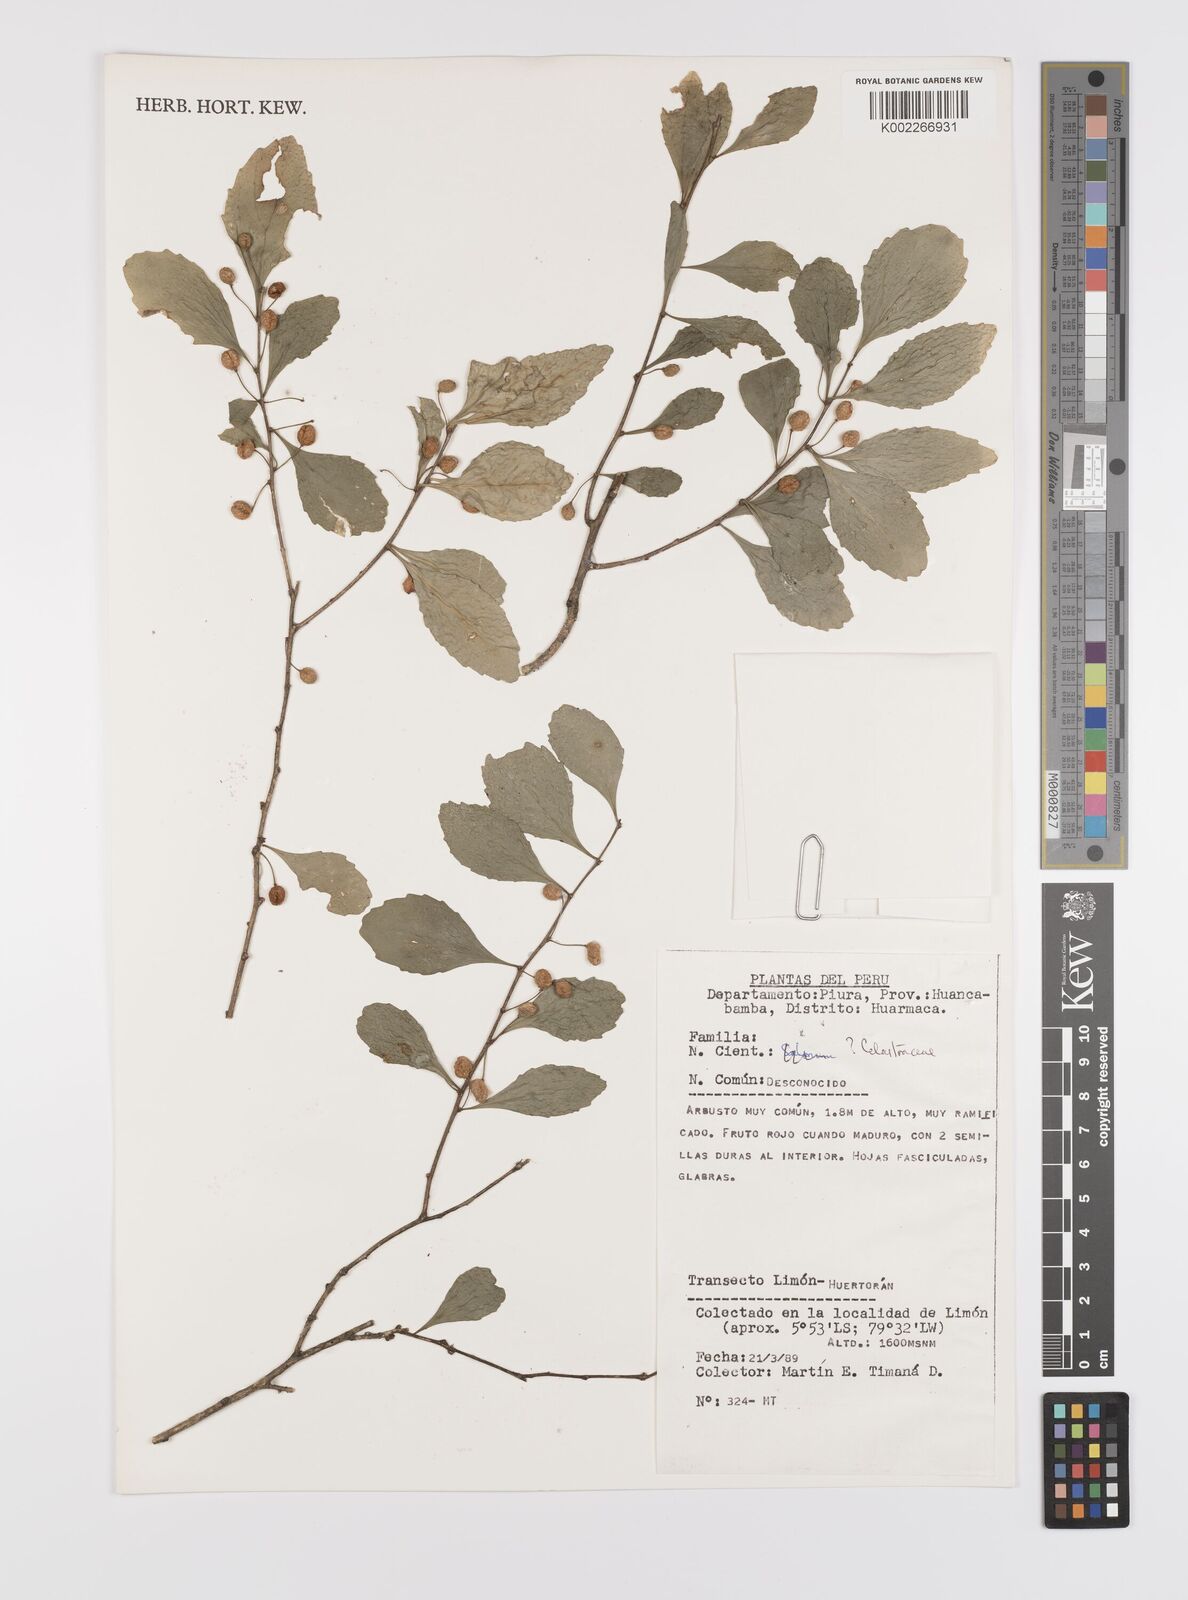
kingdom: Plantae
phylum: Tracheophyta
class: Magnoliopsida
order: Celastrales
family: Celastraceae
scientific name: Celastraceae
